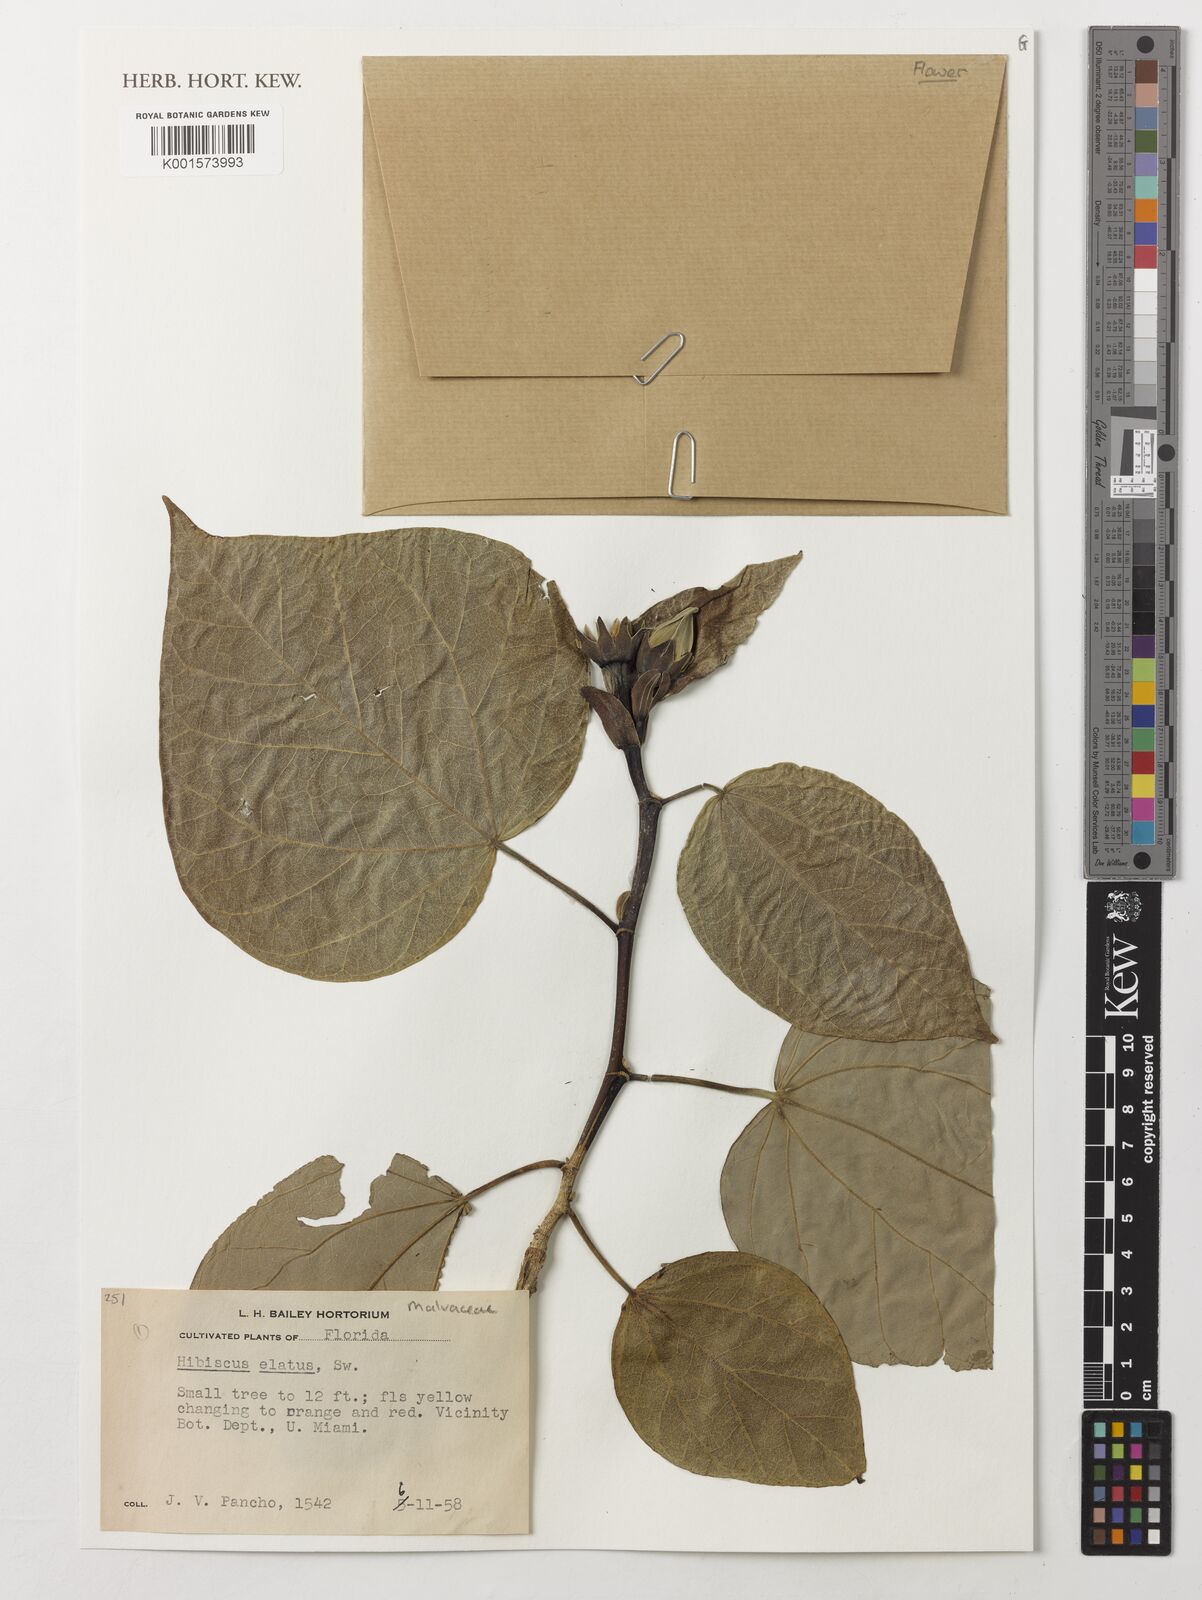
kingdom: Plantae
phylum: Tracheophyta
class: Magnoliopsida
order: Malvales
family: Malvaceae
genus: Talipariti
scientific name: Talipariti elatum
